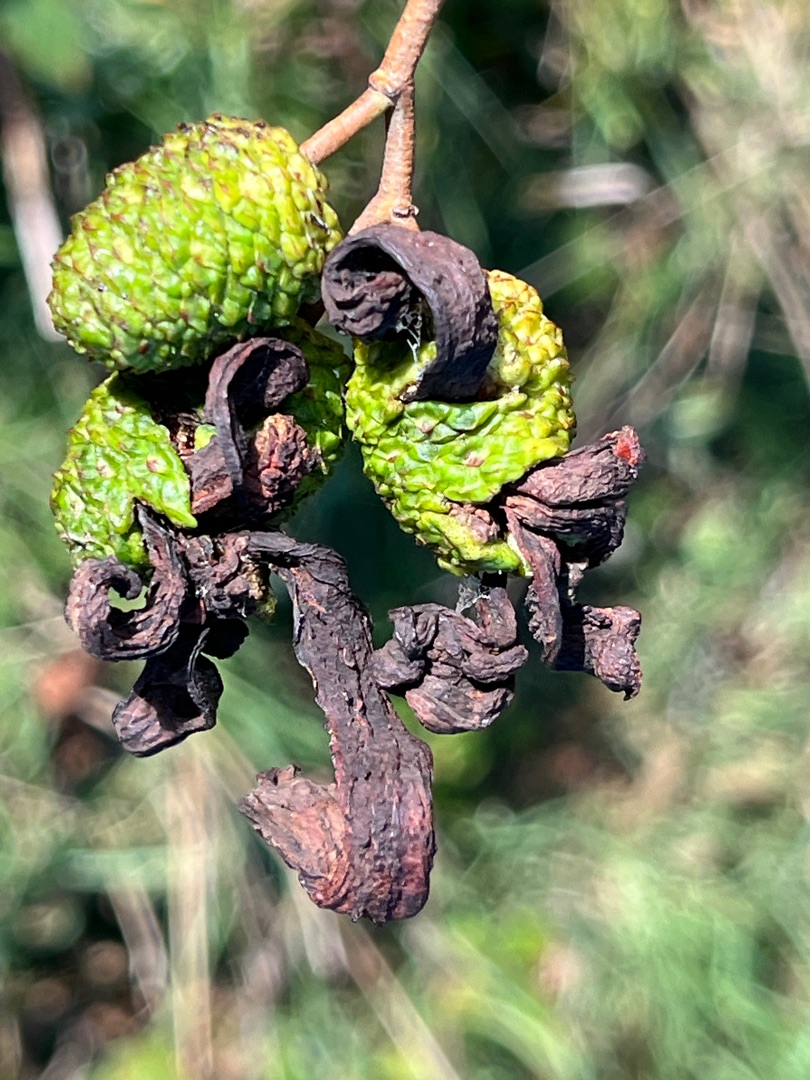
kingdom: Fungi
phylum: Ascomycota
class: Taphrinomycetes
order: Taphrinales
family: Taphrinaceae
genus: Taphrina
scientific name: Taphrina alni
